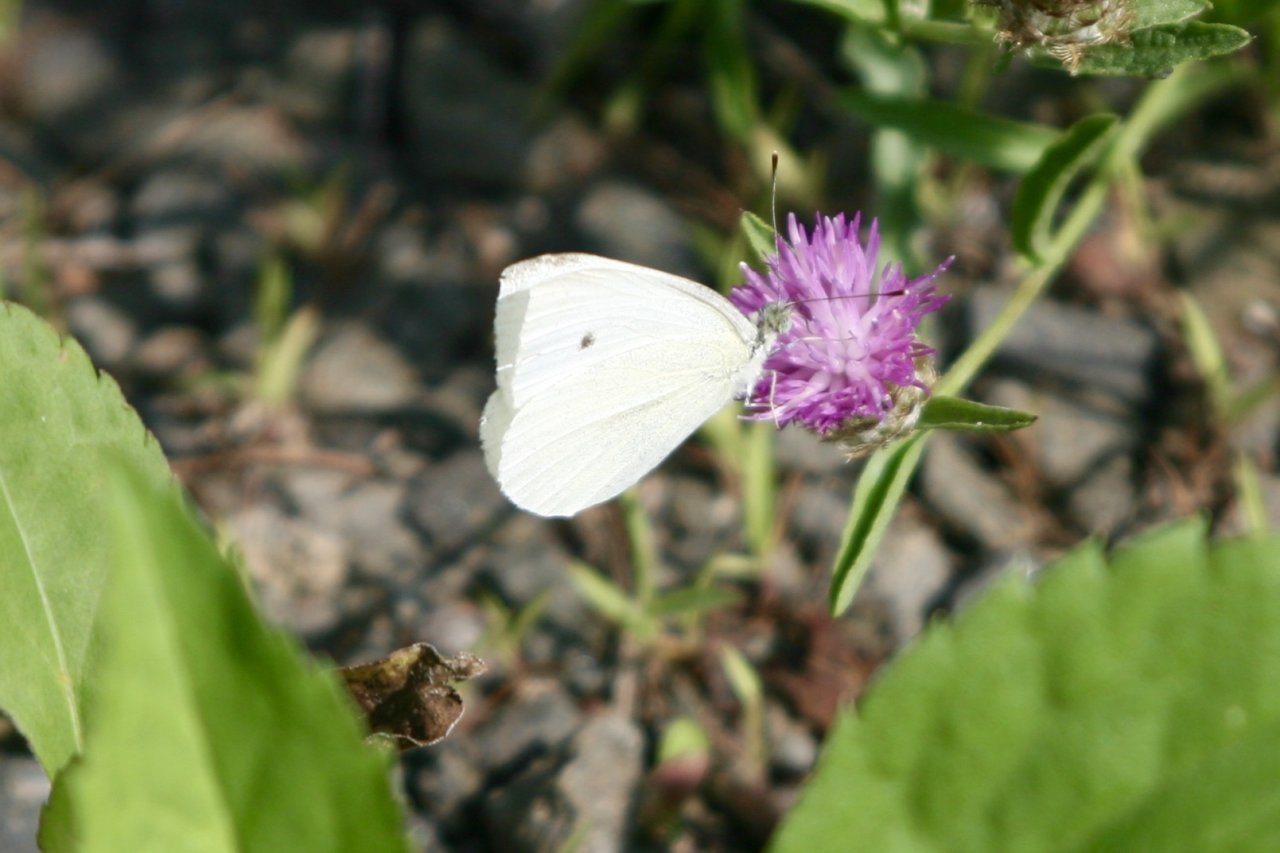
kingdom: Animalia
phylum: Arthropoda
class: Insecta
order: Lepidoptera
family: Pieridae
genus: Pieris
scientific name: Pieris rapae
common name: Cabbage White
